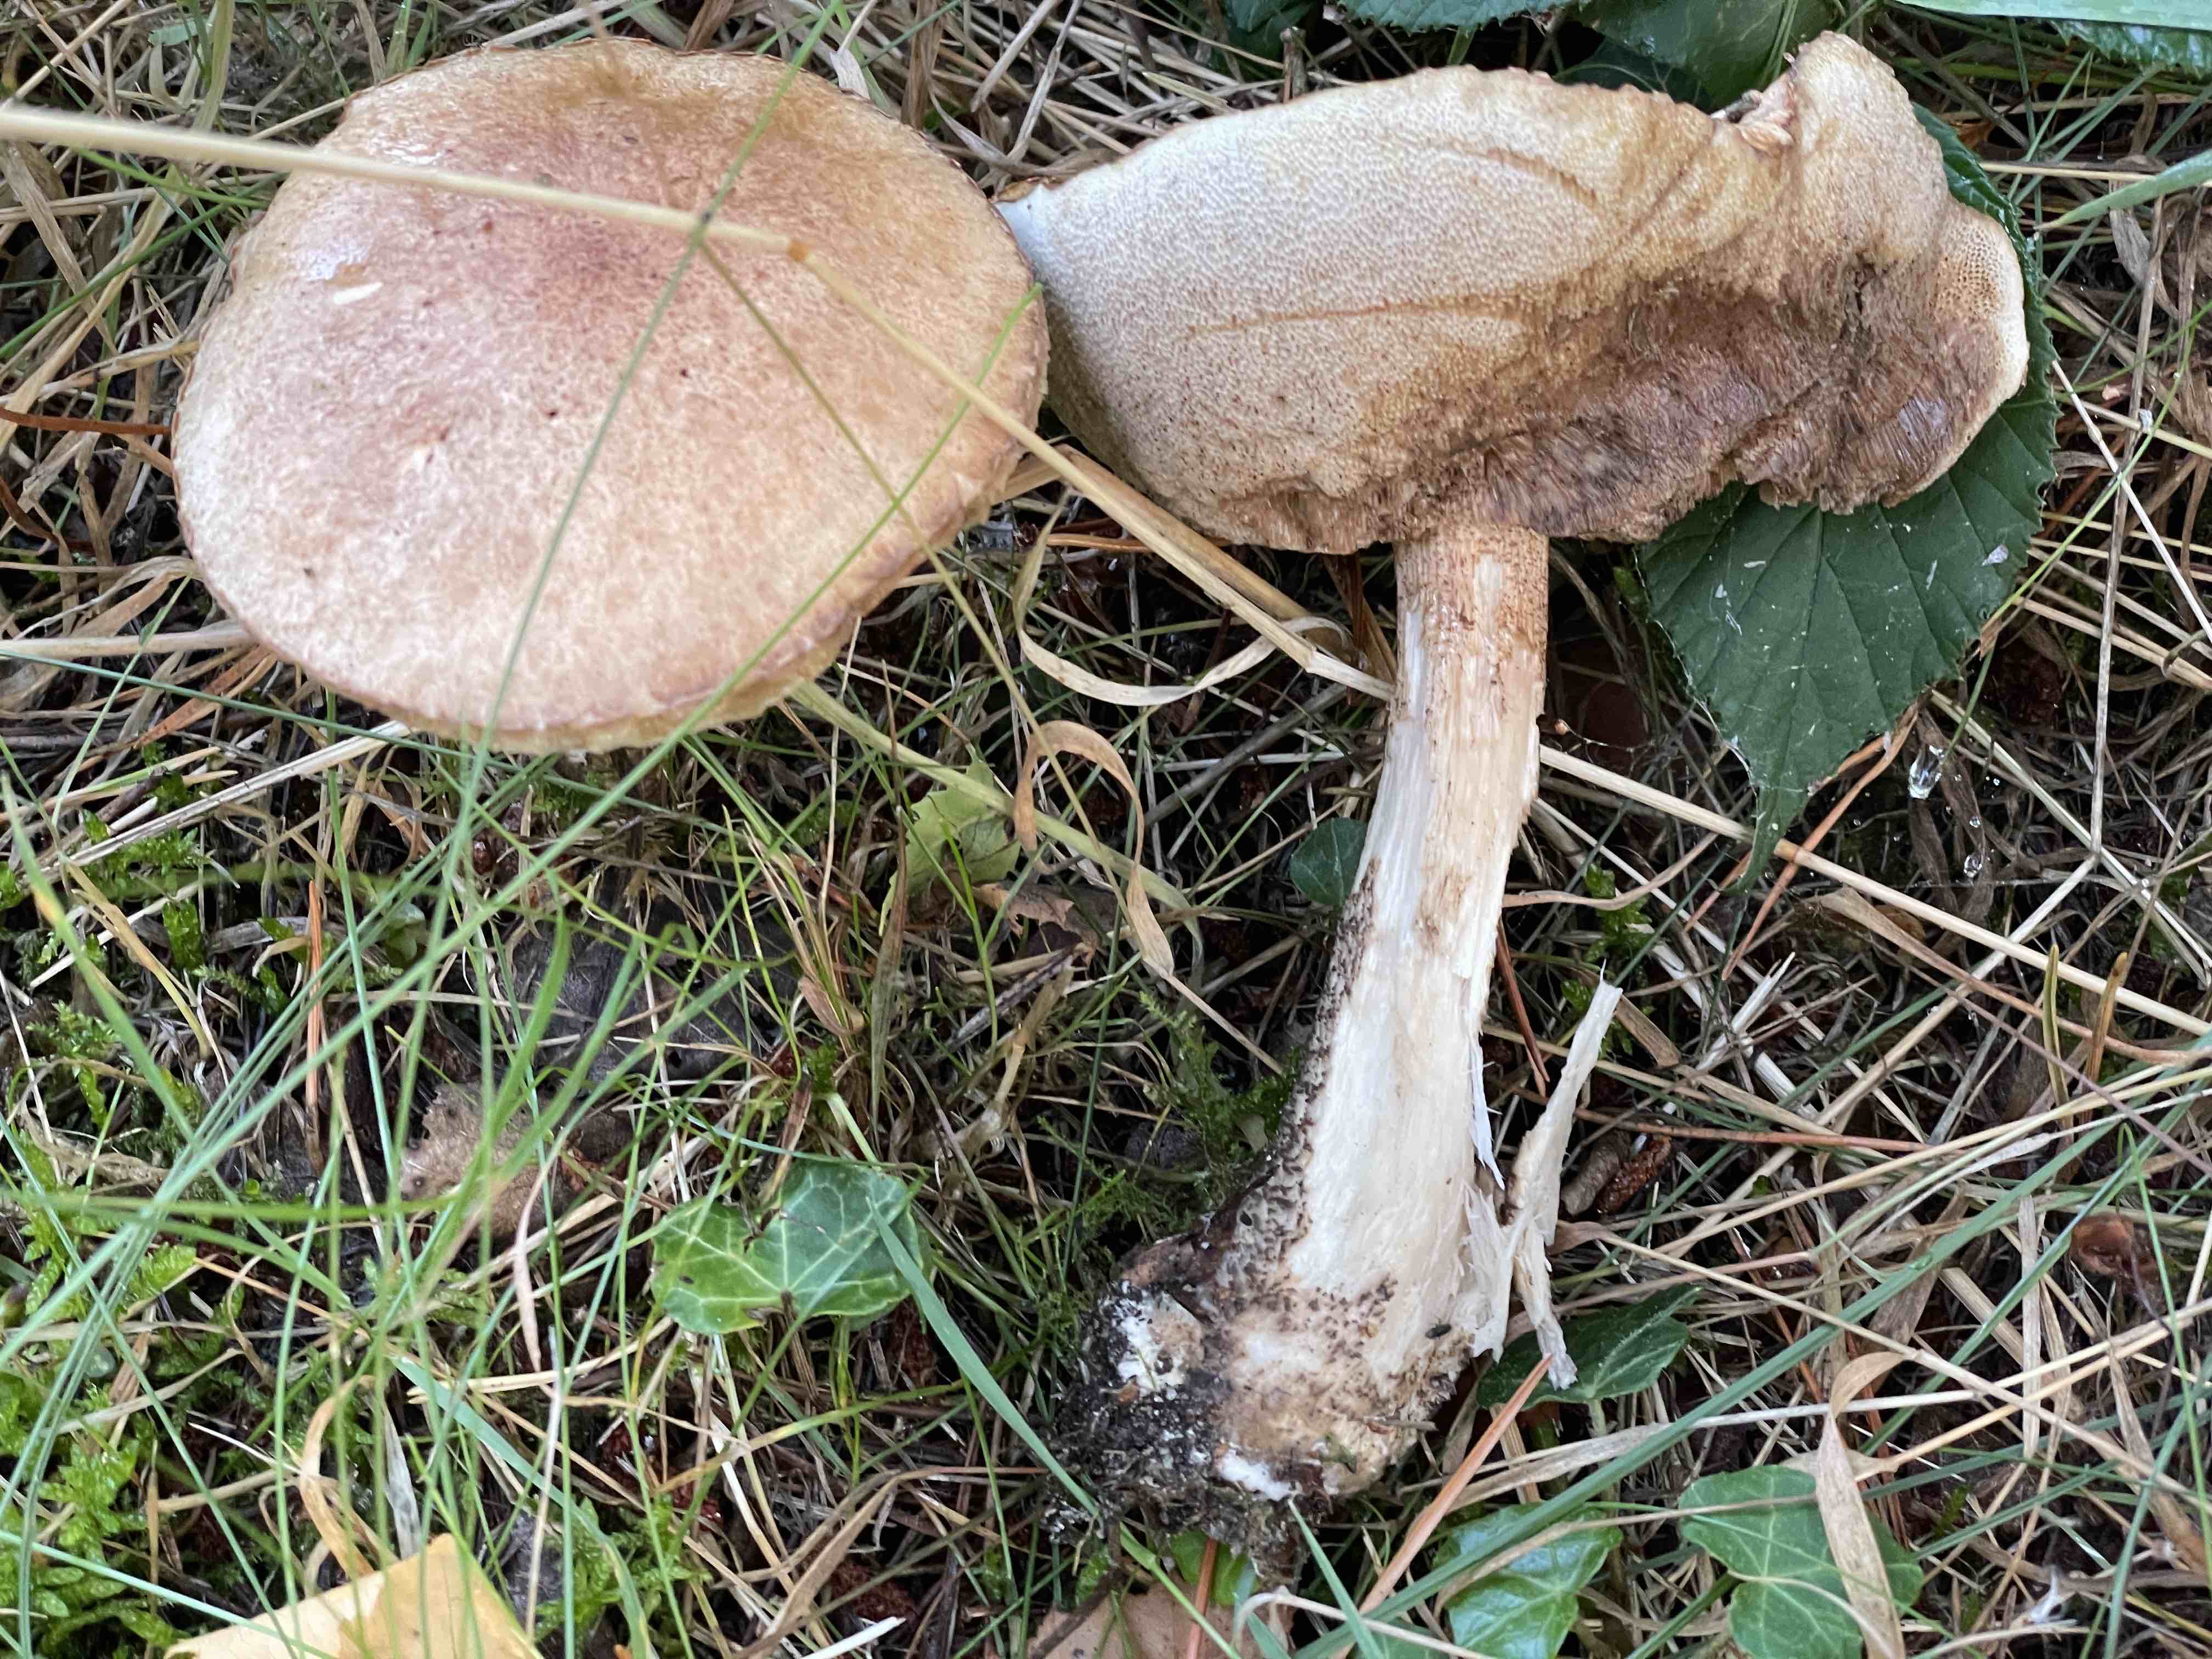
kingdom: Fungi
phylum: Basidiomycota
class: Agaricomycetes
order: Boletales
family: Boletaceae
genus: Leccinum
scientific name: Leccinum scabrum
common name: brun skælrørhat
